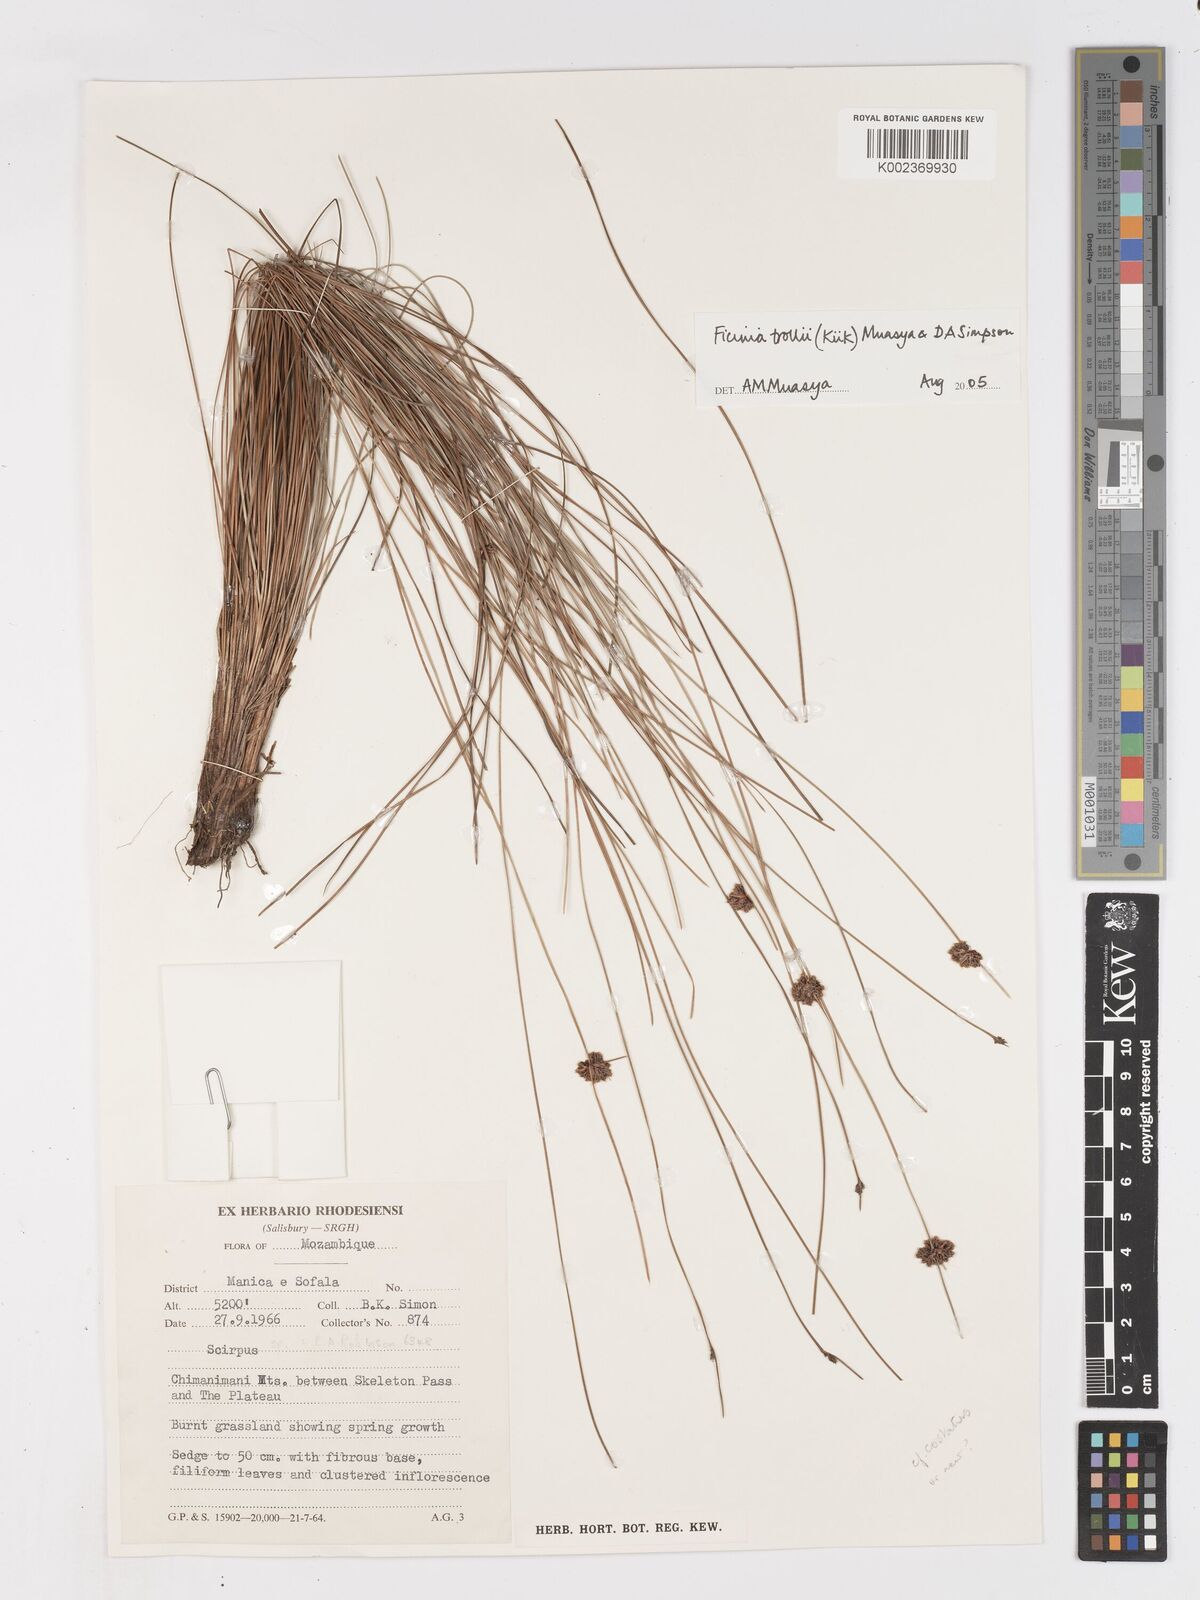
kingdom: Plantae
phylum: Tracheophyta
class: Liliopsida
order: Poales
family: Cyperaceae
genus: Ficinia
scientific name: Ficinia trollii
